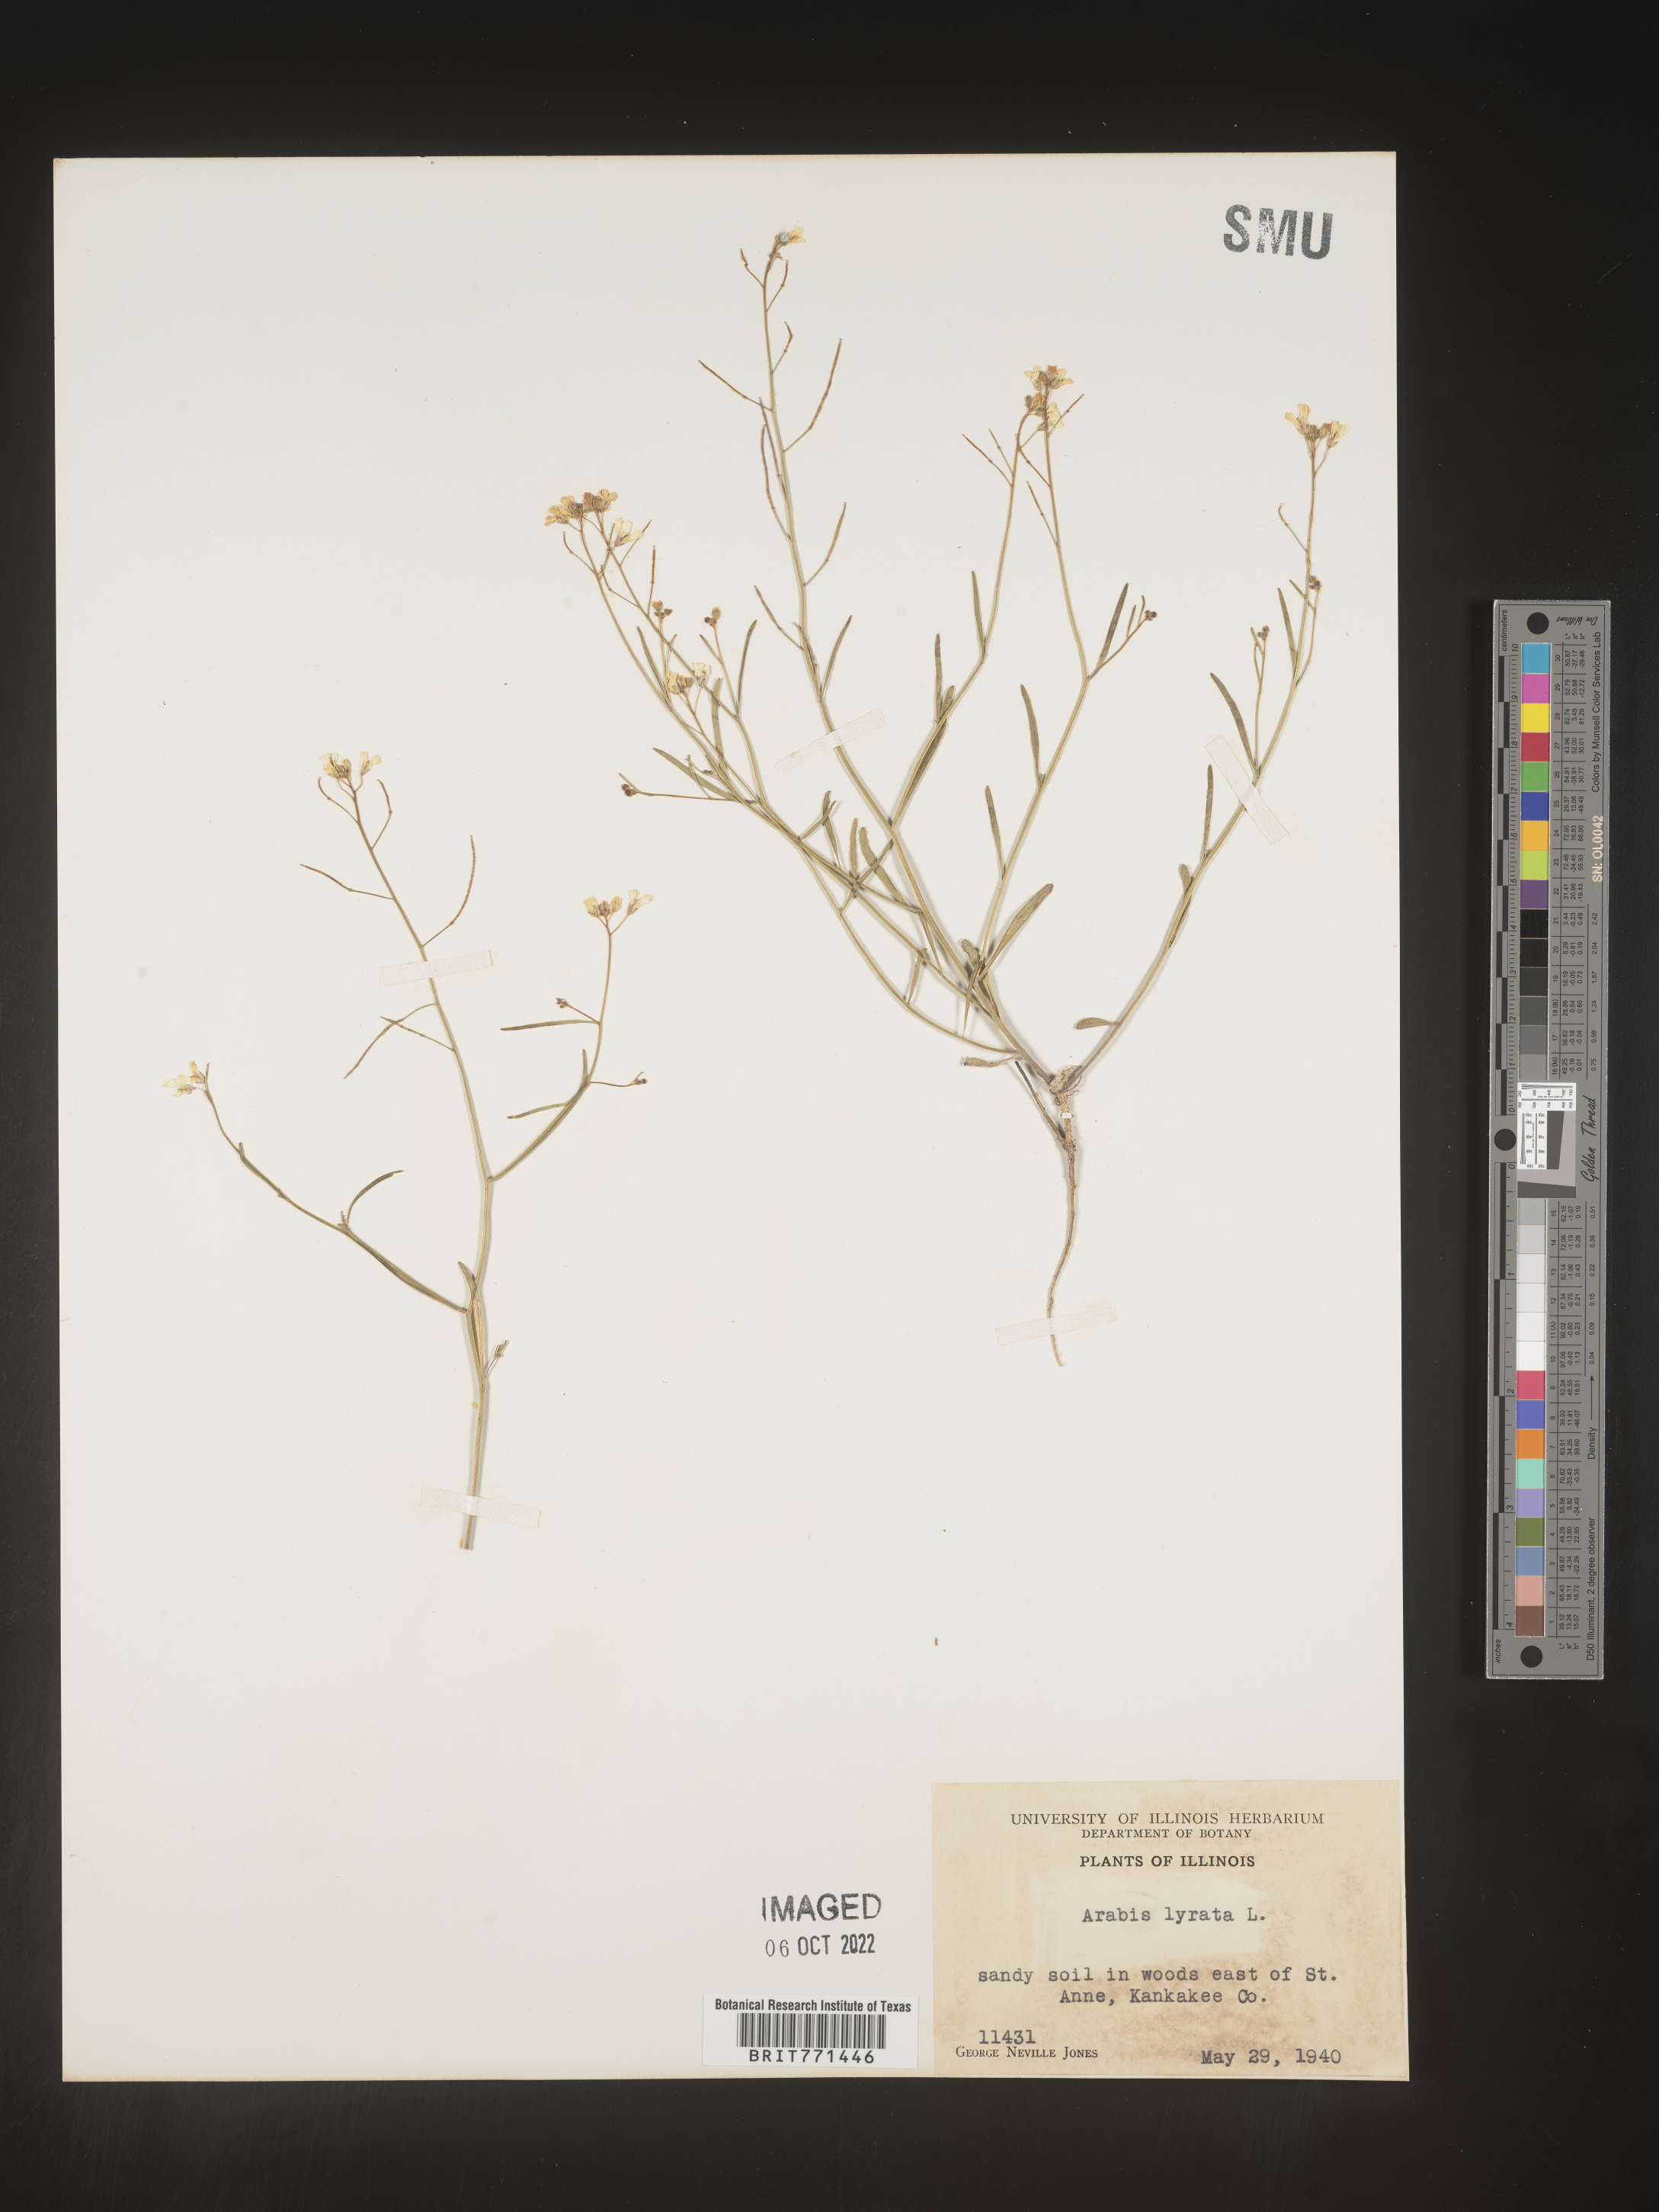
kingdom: Plantae
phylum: Tracheophyta
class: Magnoliopsida
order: Brassicales
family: Brassicaceae
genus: Arabidopsis
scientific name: Arabidopsis lyrata
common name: Lyrate rockcress
